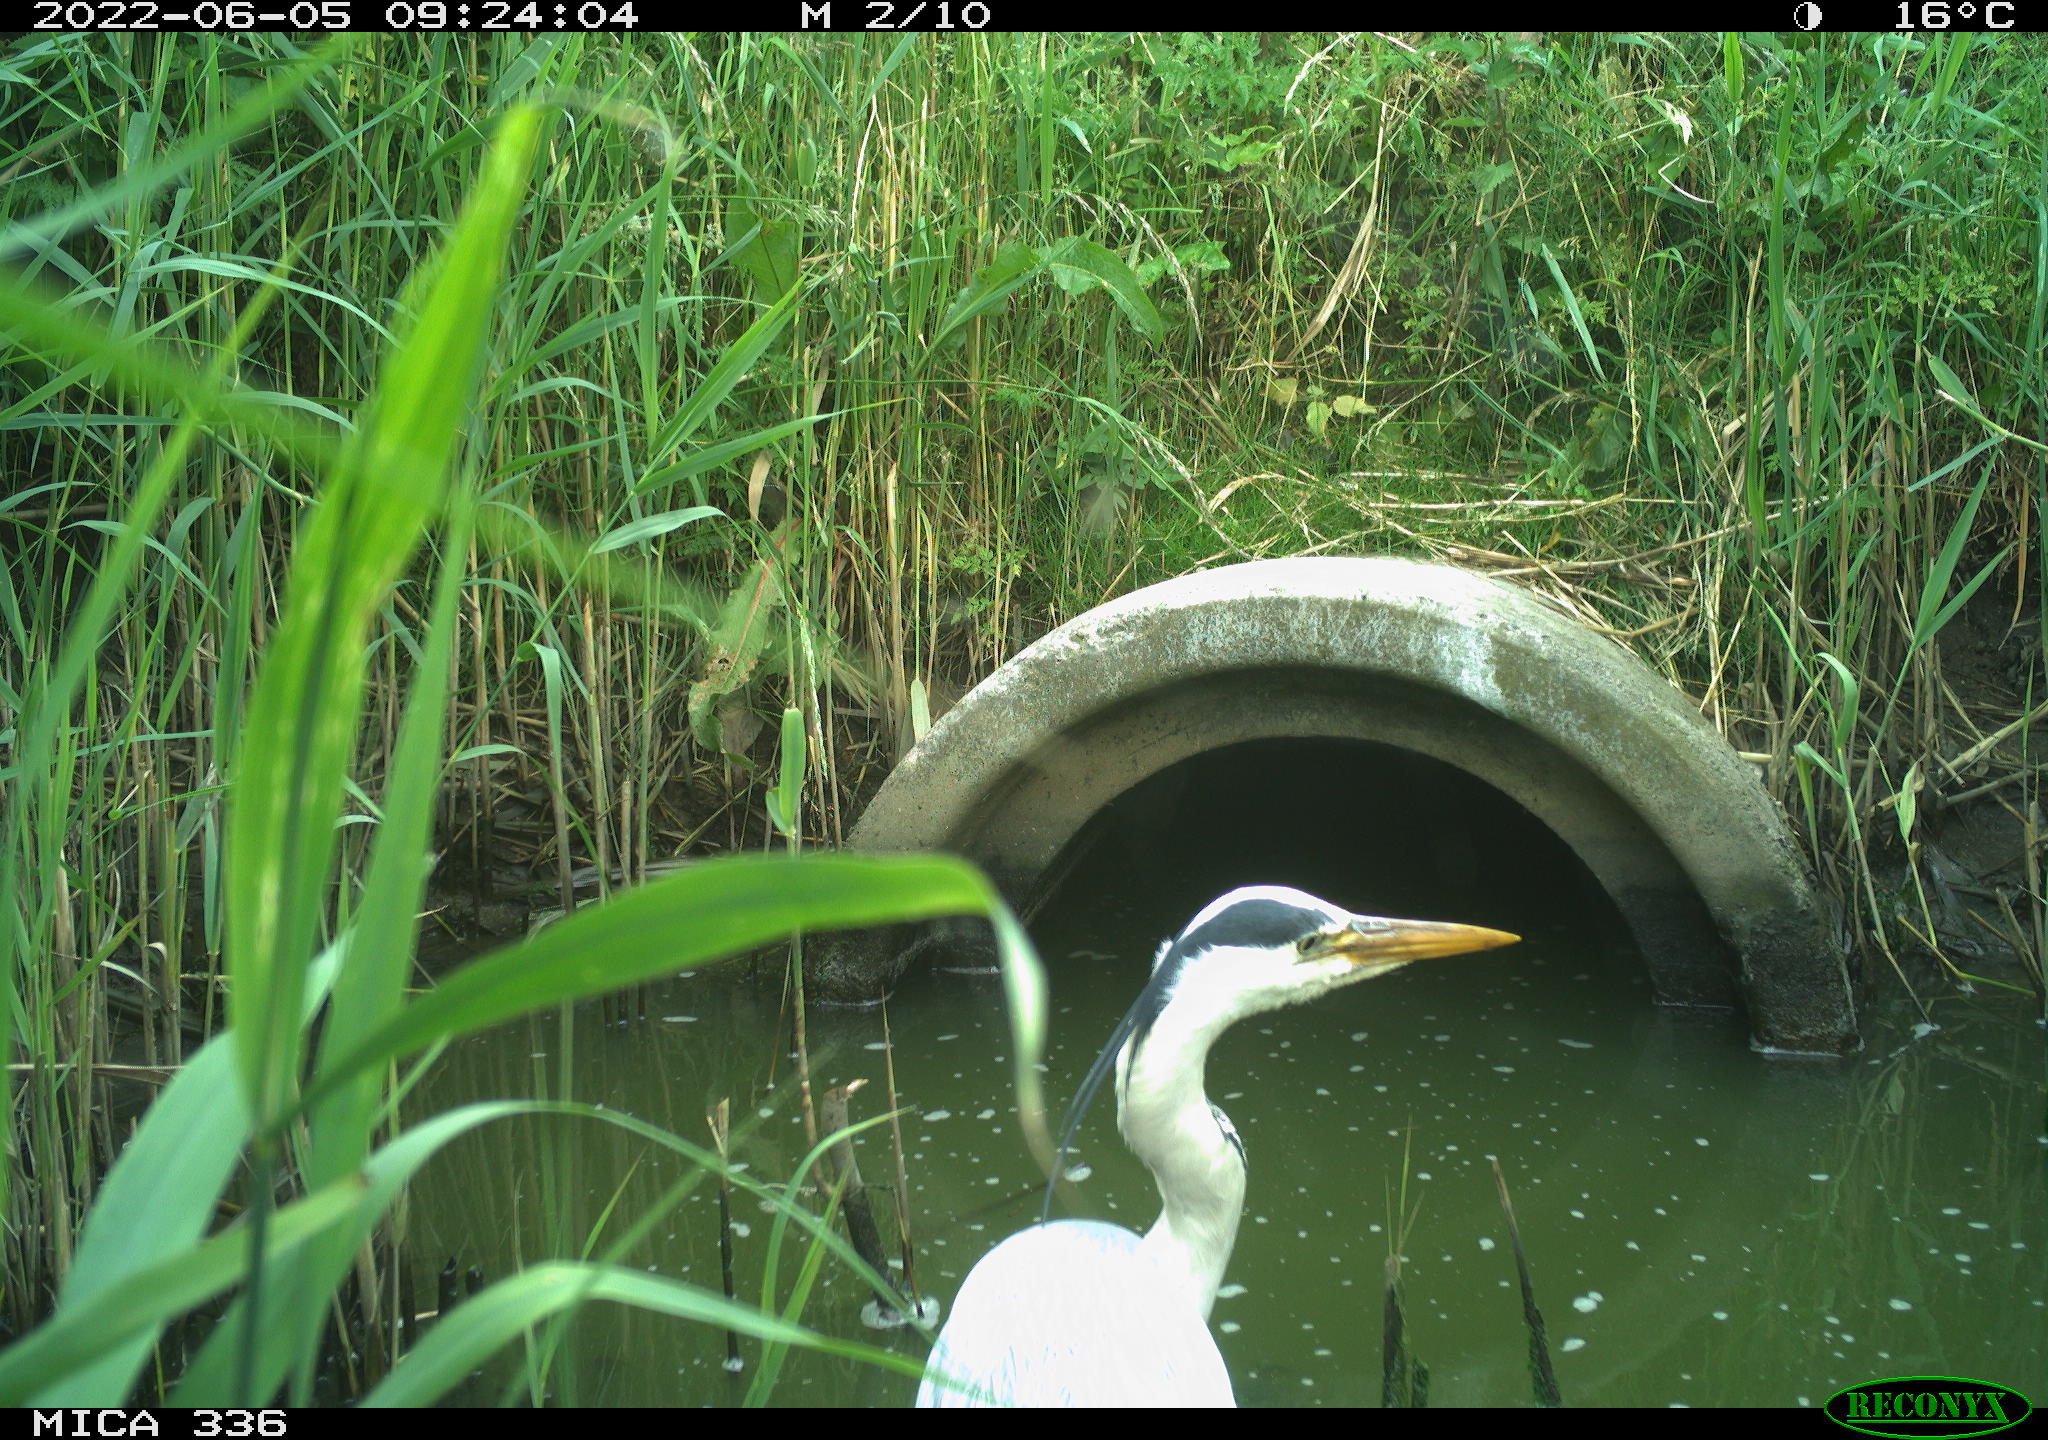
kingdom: Animalia
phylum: Chordata
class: Aves
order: Pelecaniformes
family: Ardeidae
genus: Ardea
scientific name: Ardea
